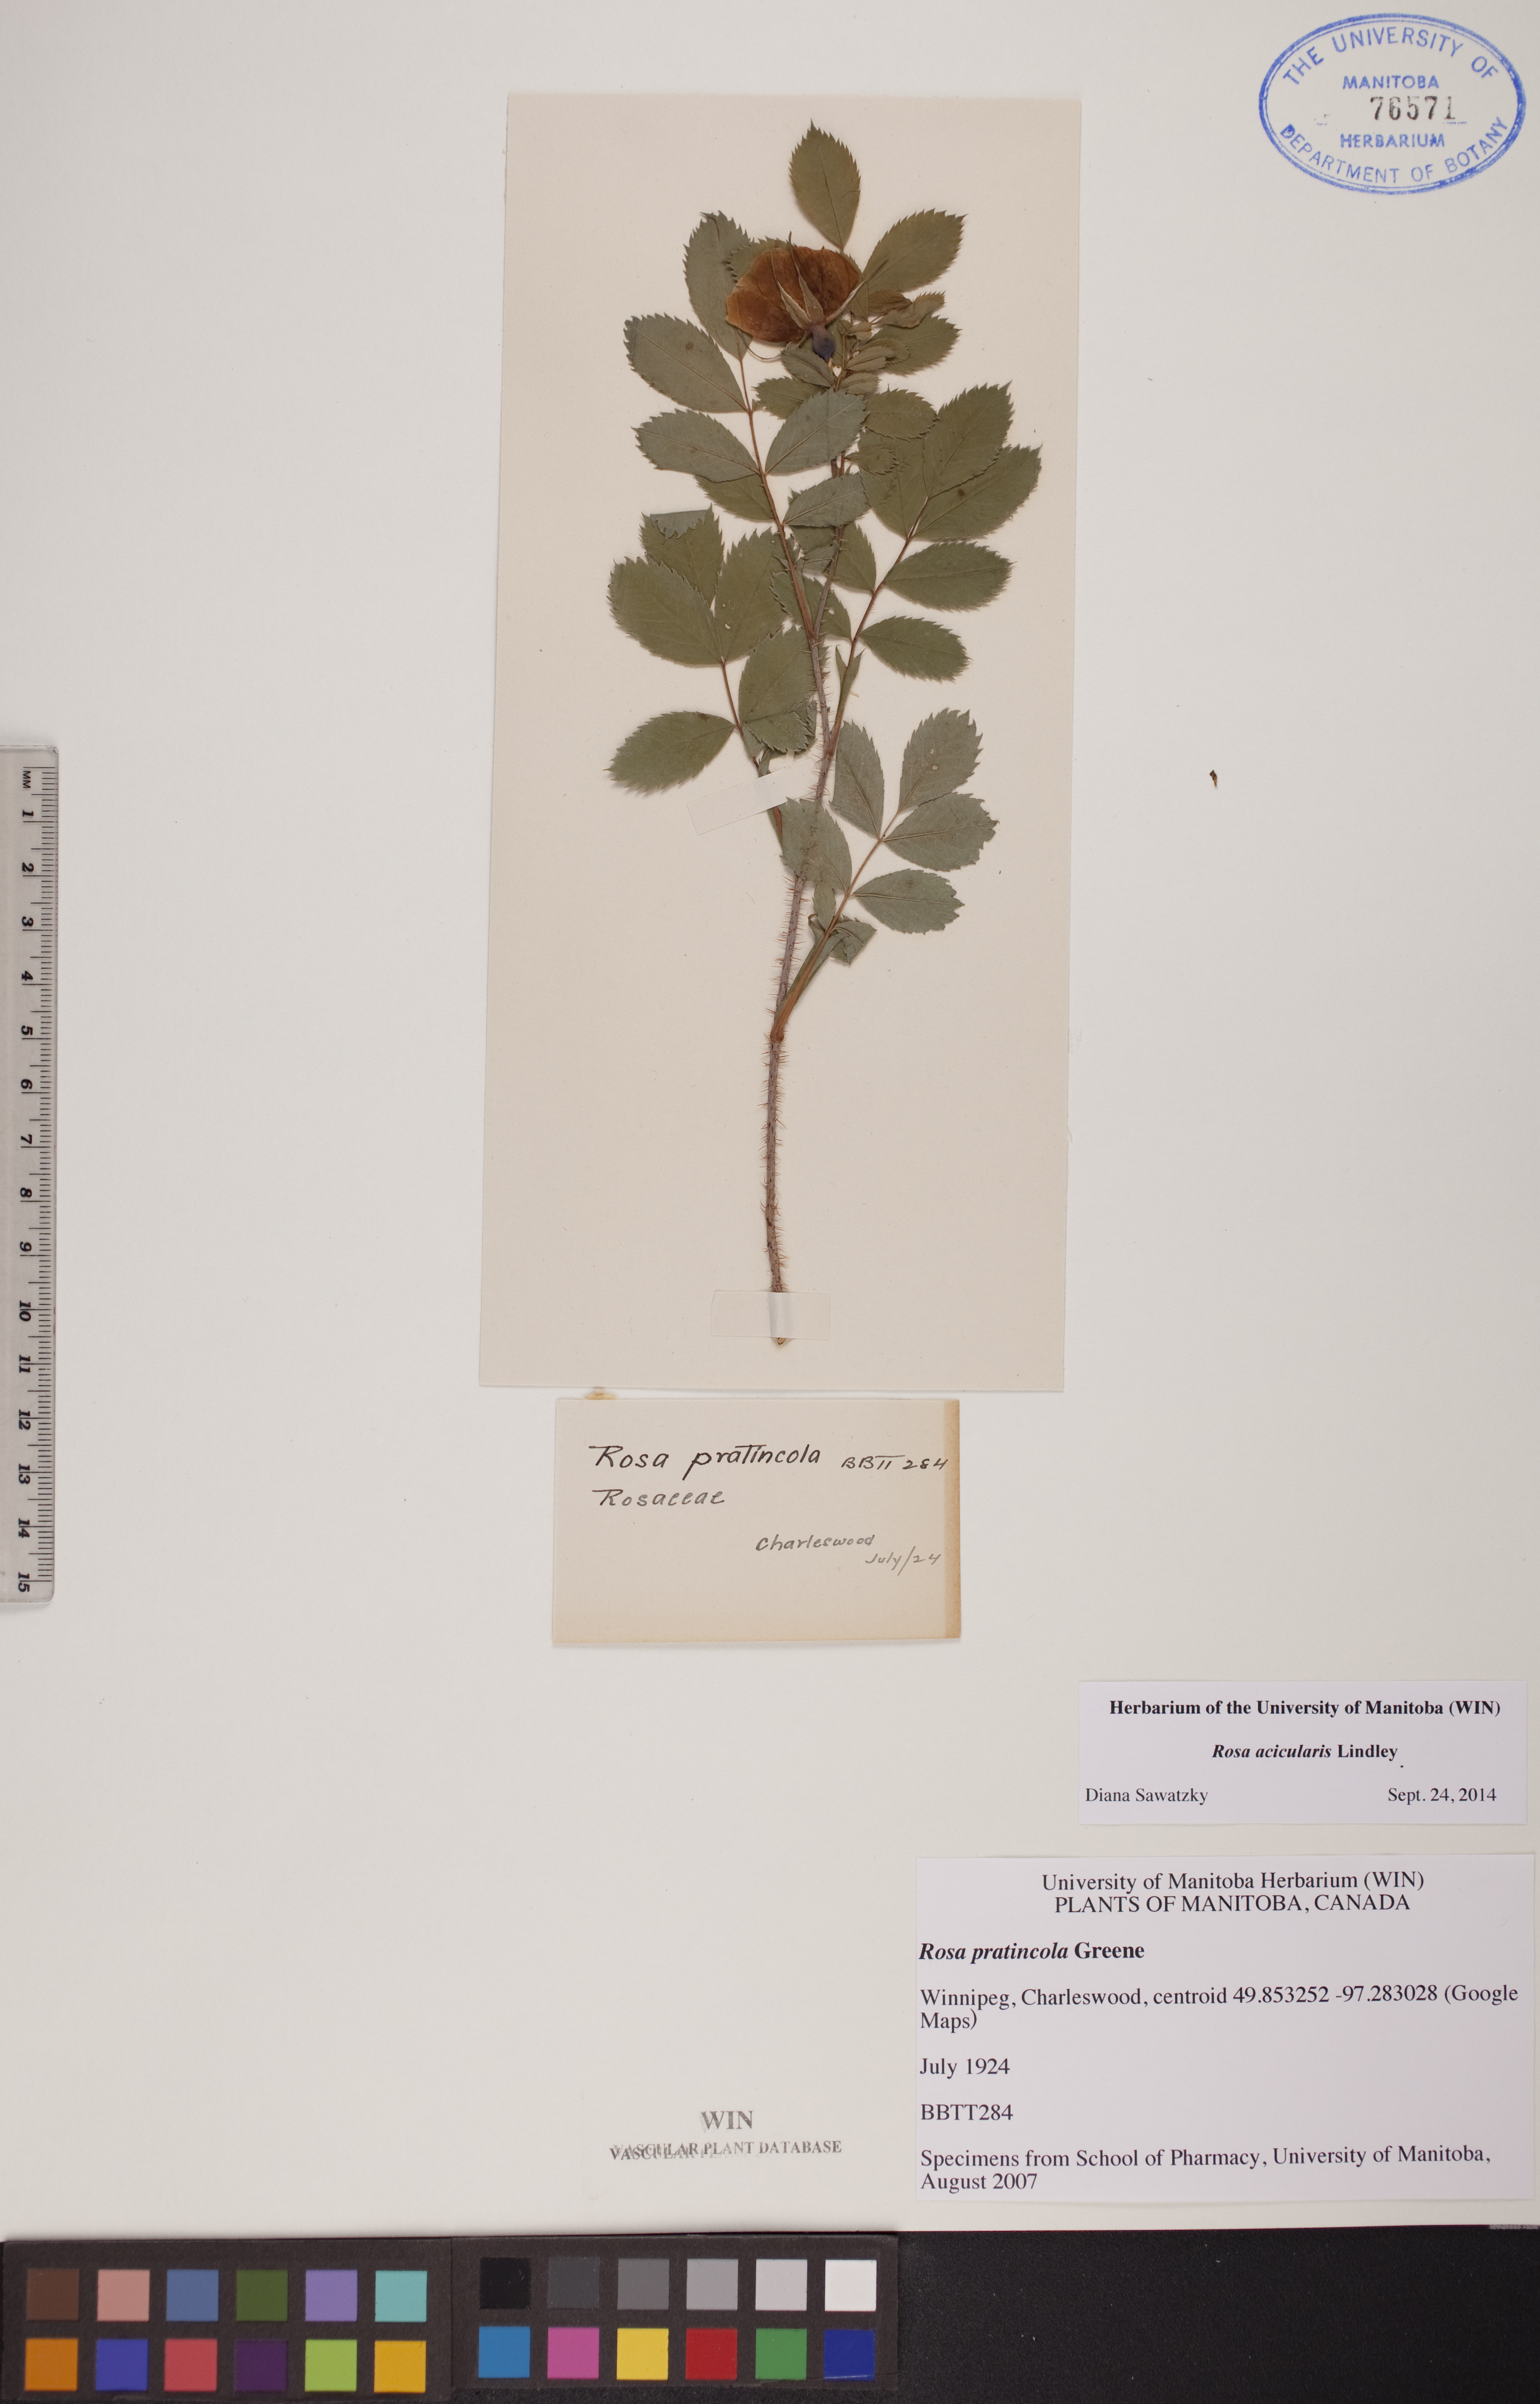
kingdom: Plantae
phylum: Tracheophyta
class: Magnoliopsida
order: Rosales
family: Rosaceae
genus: Rosa
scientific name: Rosa acicularis
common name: Prickly rose
